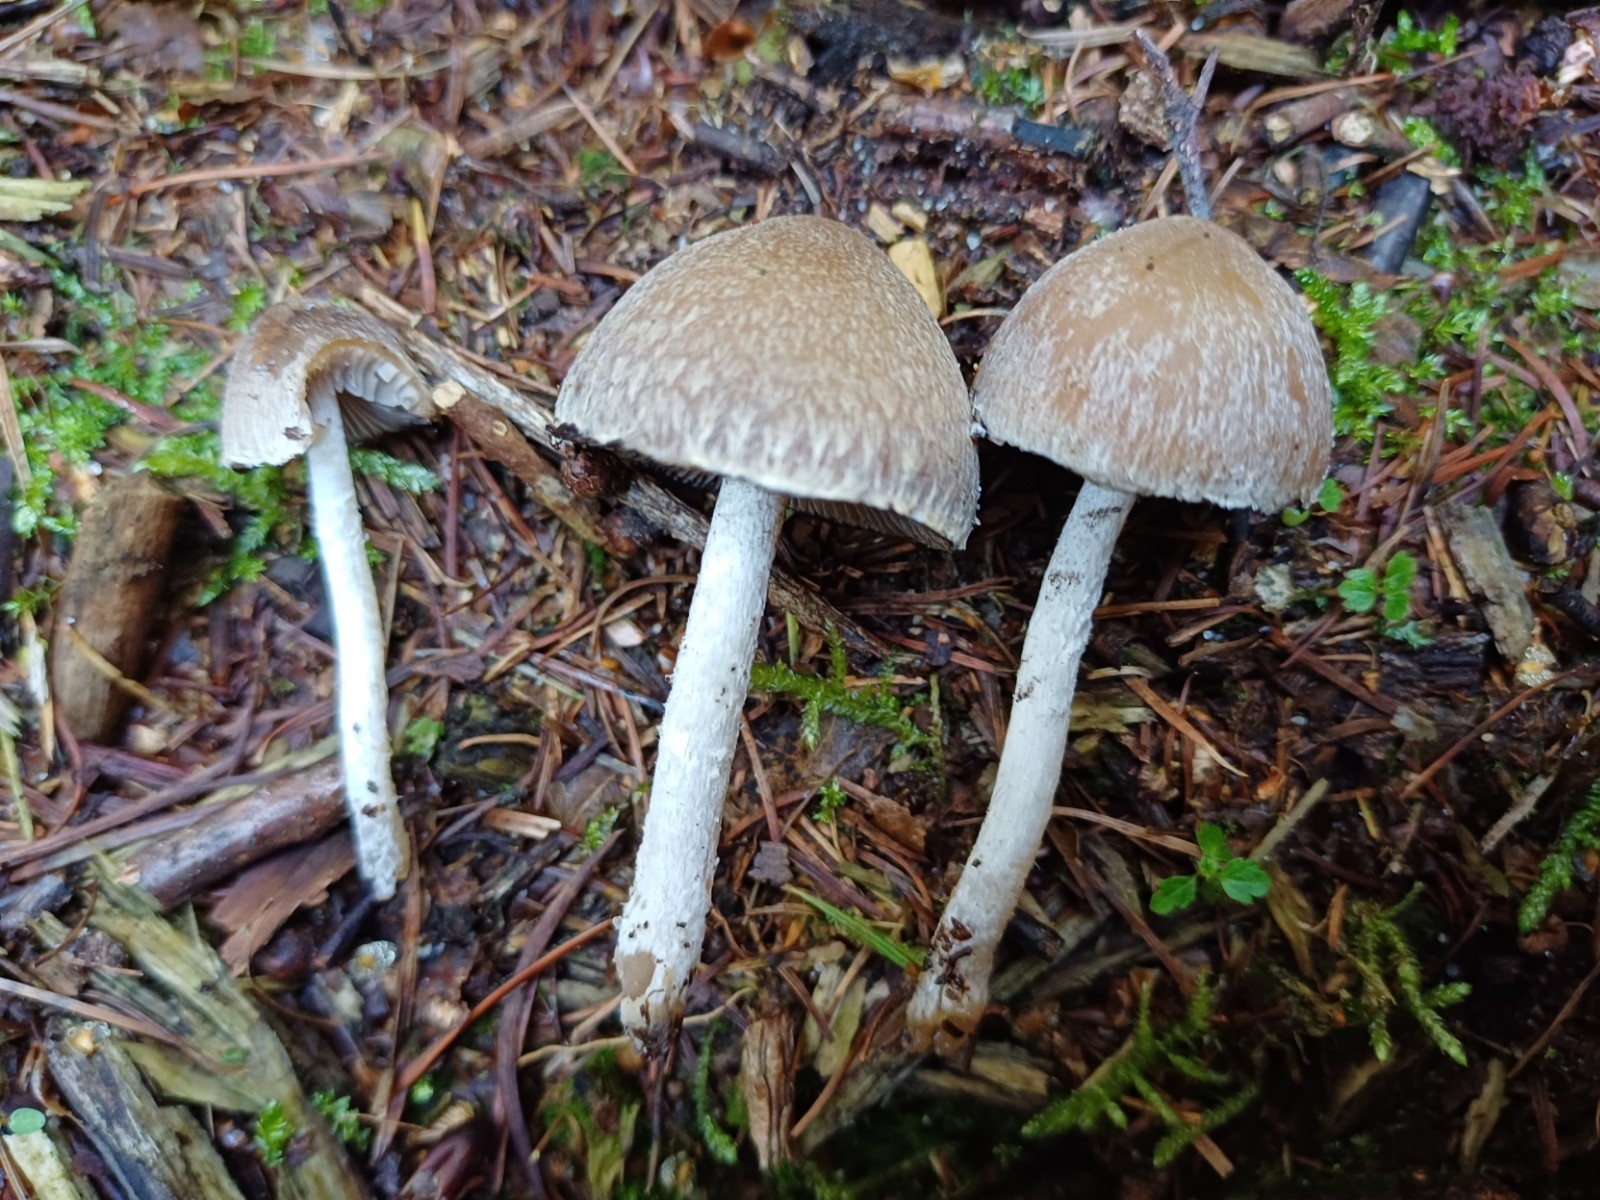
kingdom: Fungi
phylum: Basidiomycota
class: Agaricomycetes
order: Agaricales
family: Psathyrellaceae
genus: Psathyrella
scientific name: Psathyrella
